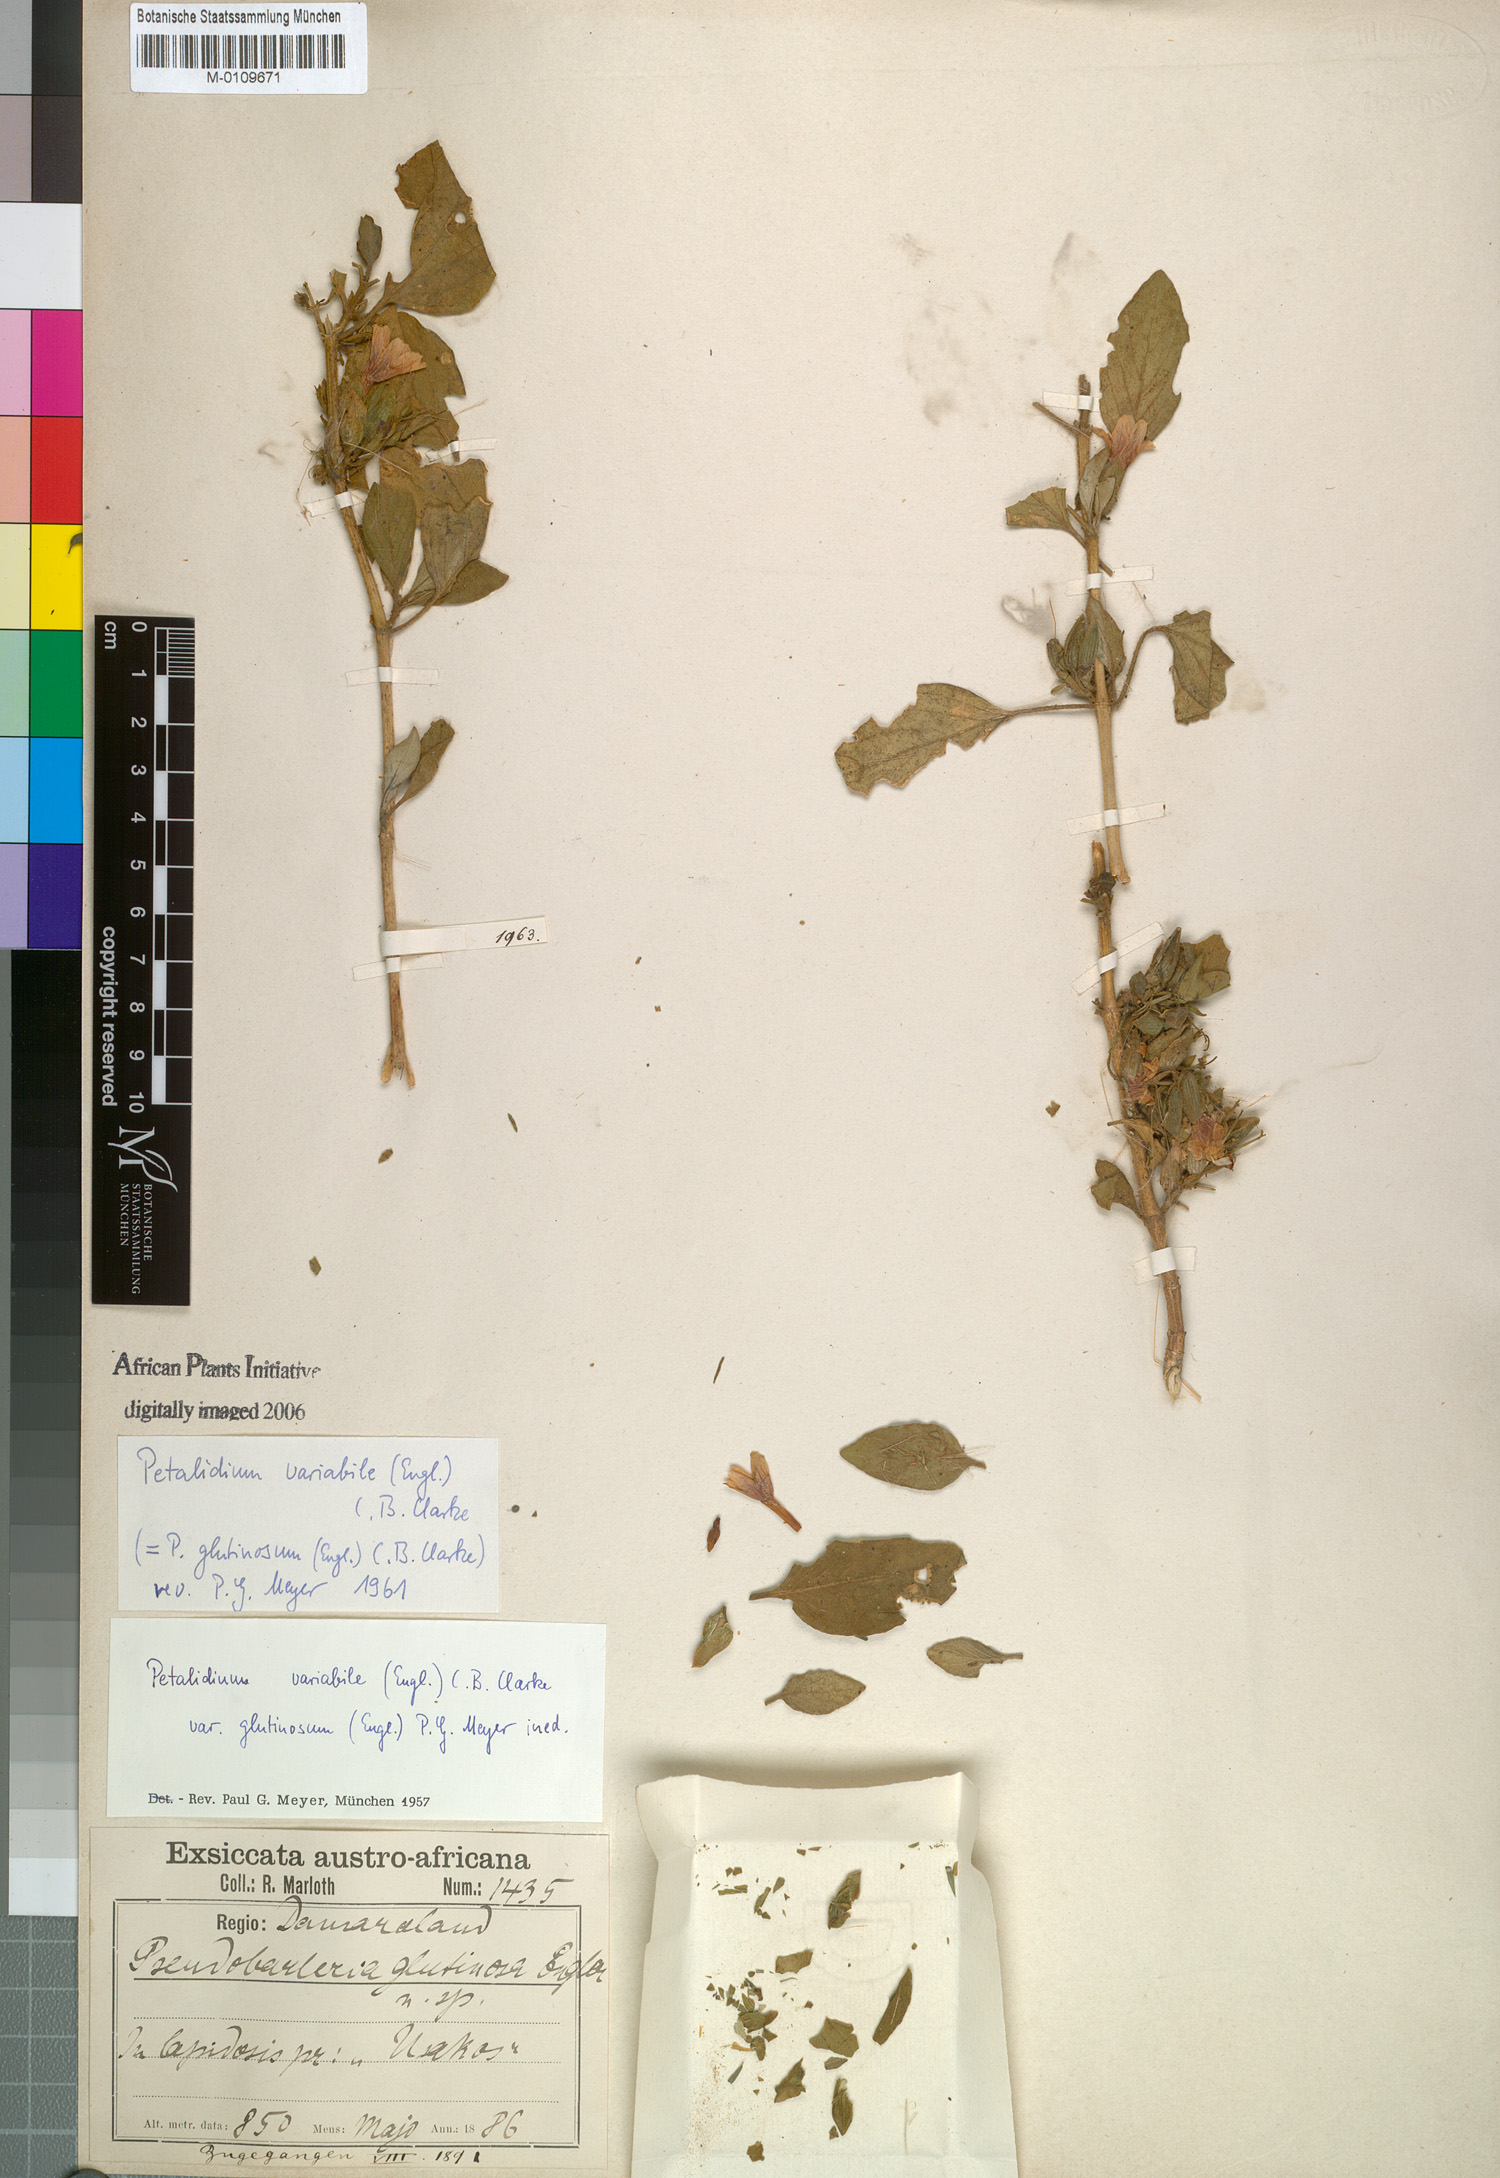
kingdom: Plantae
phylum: Tracheophyta
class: Magnoliopsida
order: Lamiales
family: Acanthaceae
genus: Petalidium
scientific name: Petalidium variabile
